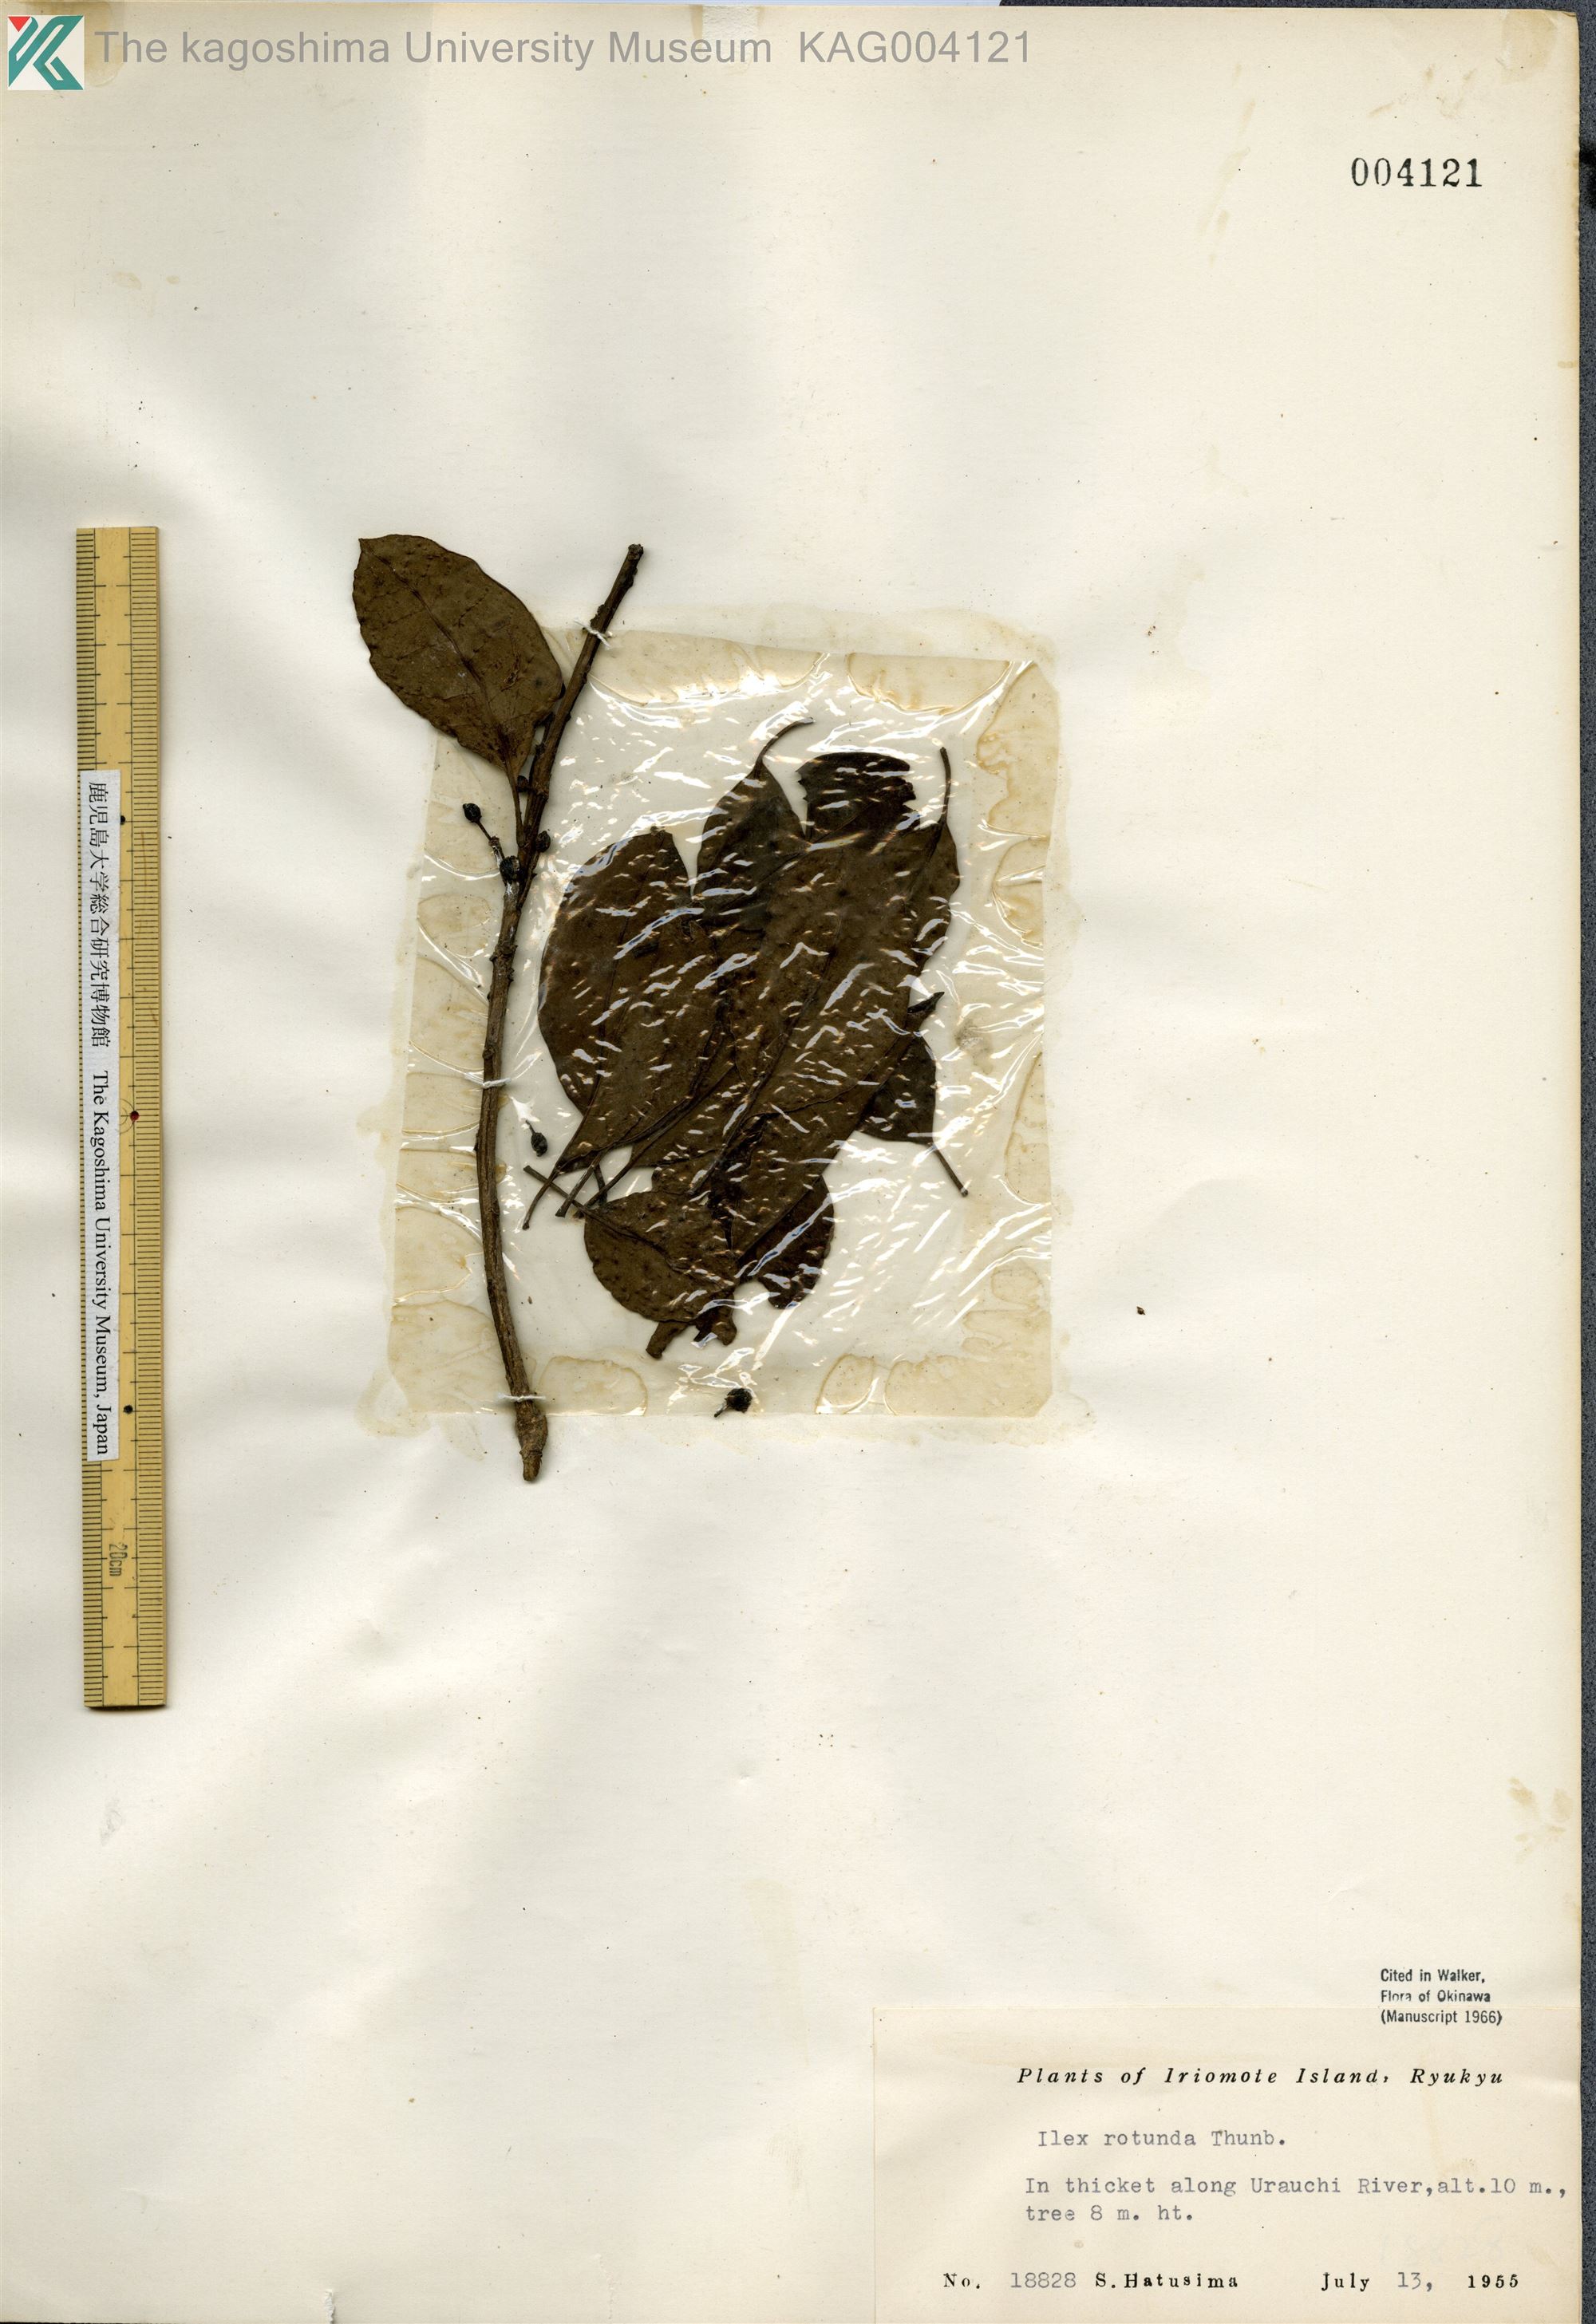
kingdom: Plantae
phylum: Tracheophyta
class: Magnoliopsida
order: Aquifoliales
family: Aquifoliaceae
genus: Ilex
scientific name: Ilex rotunda
